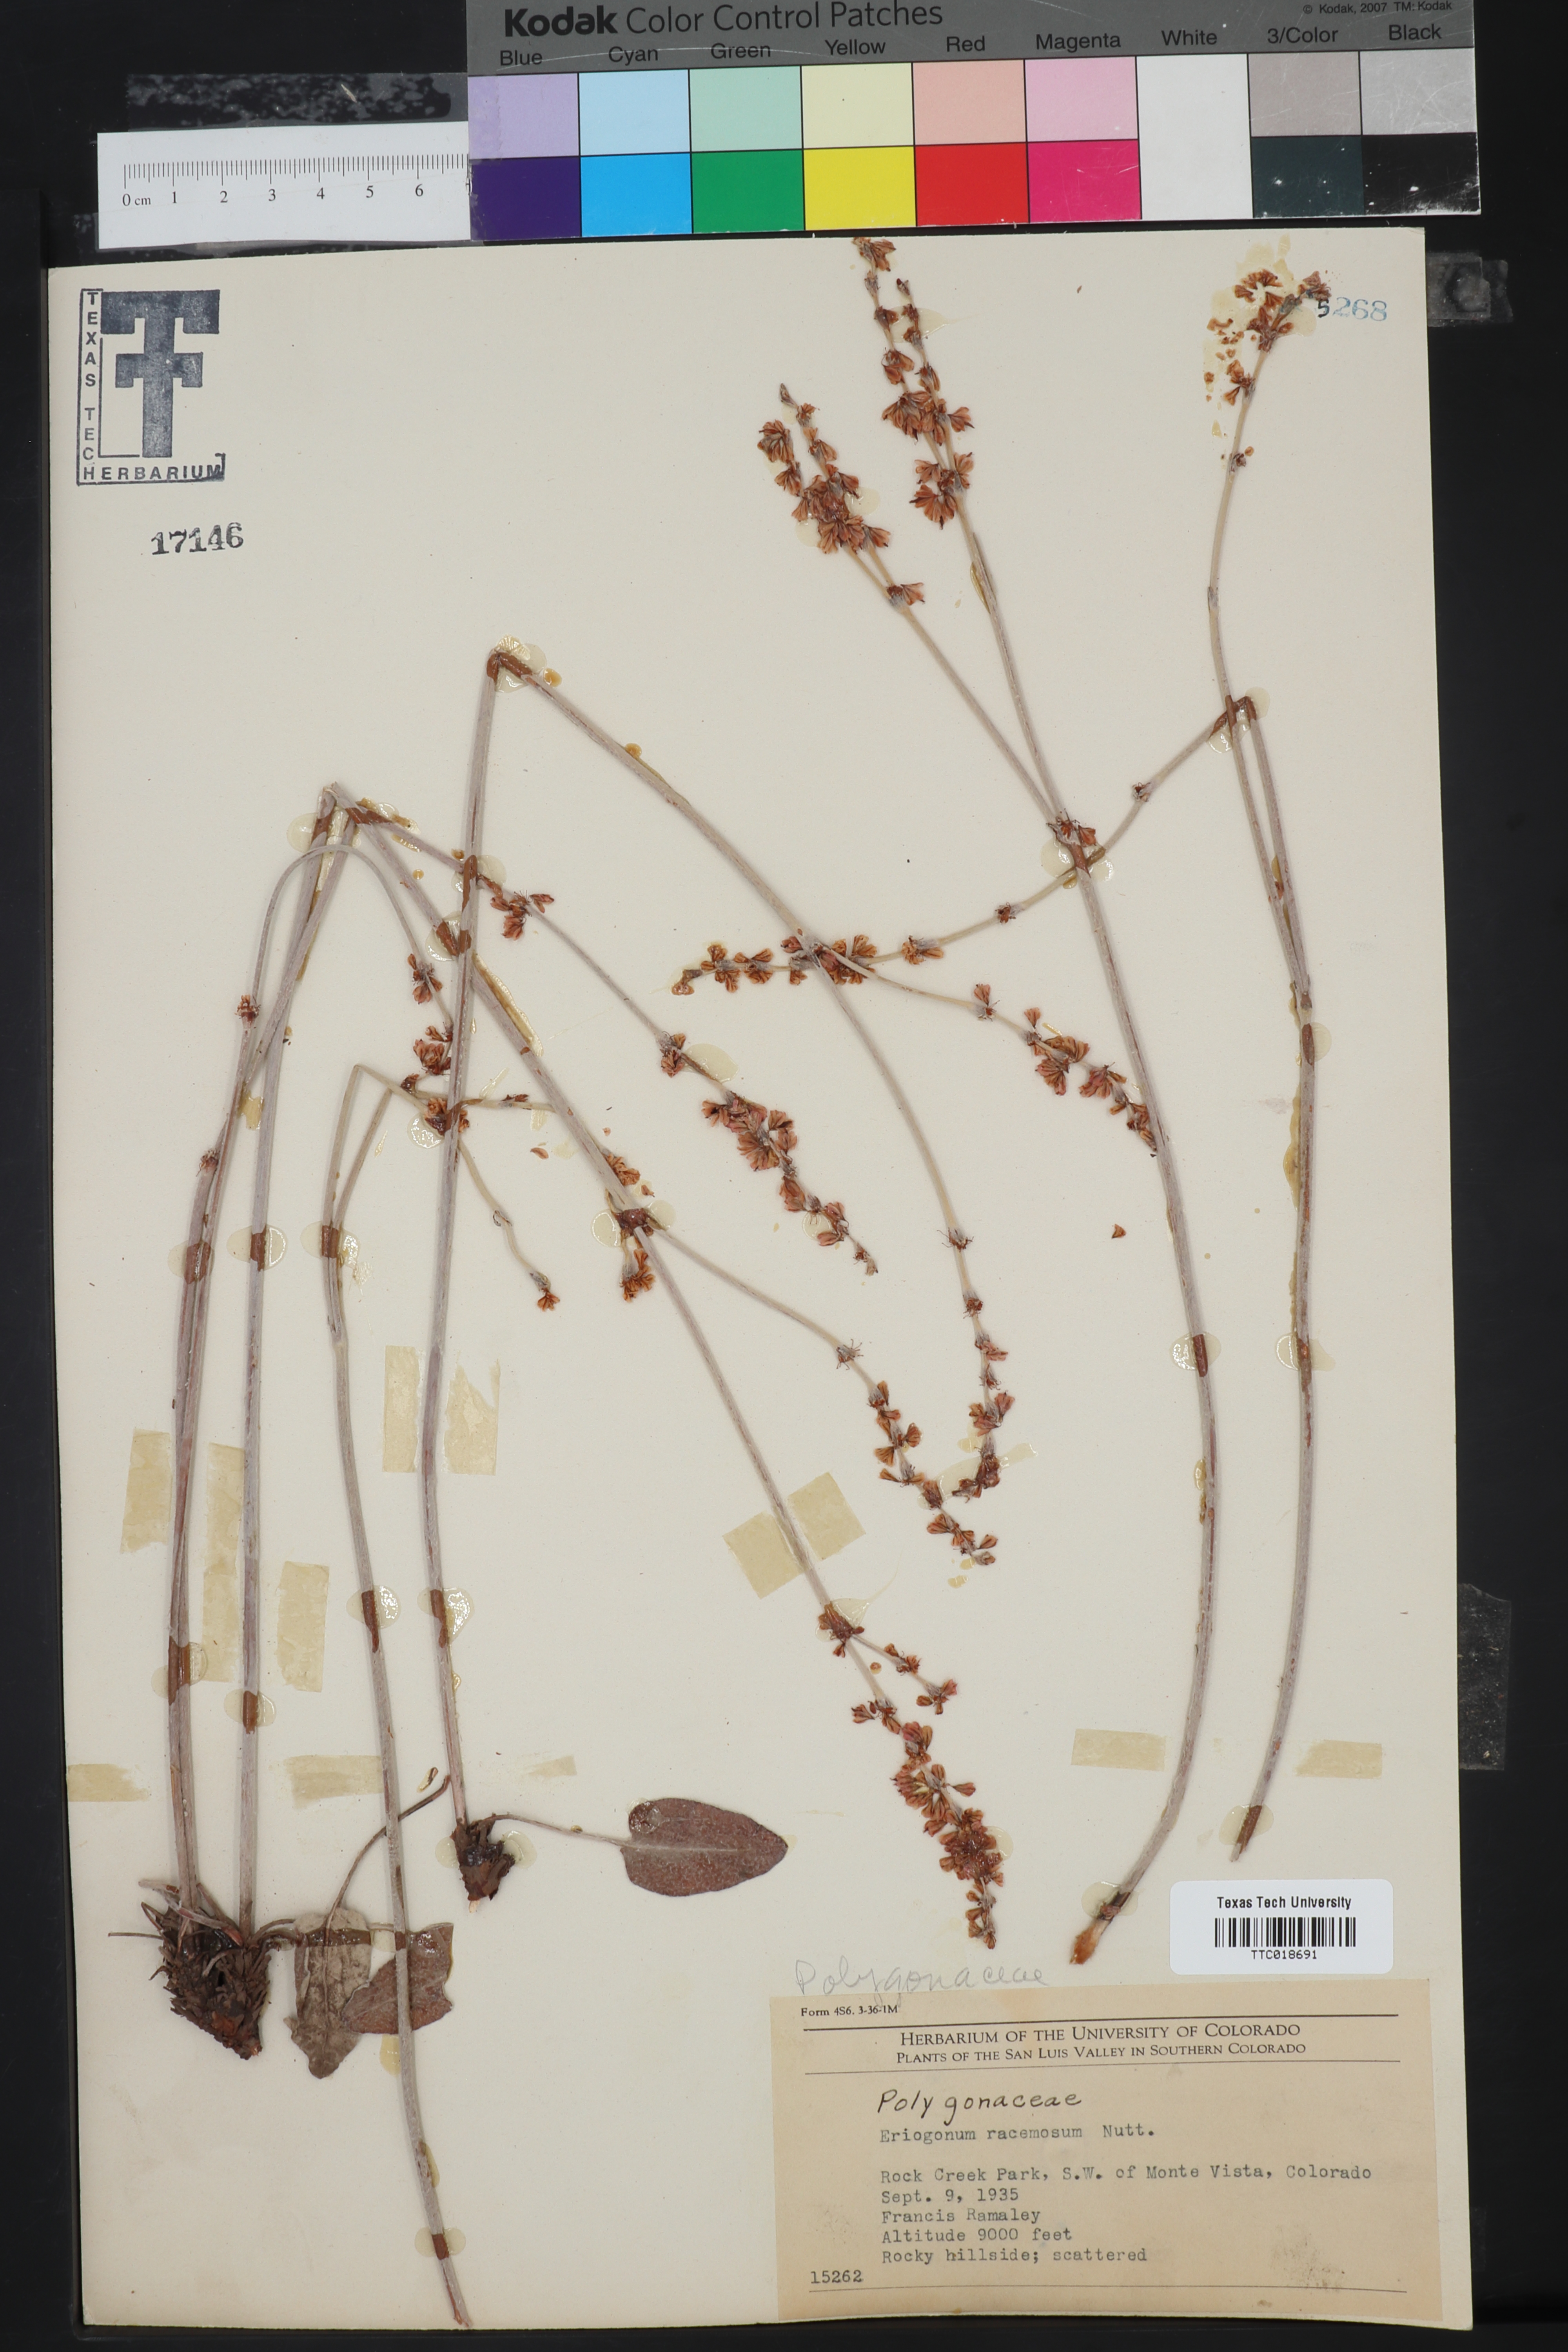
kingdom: Plantae
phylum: Tracheophyta
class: Magnoliopsida
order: Caryophyllales
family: Polygonaceae
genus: Eriogonum
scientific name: Eriogonum racemosum
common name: Redroot wild buckwheat
